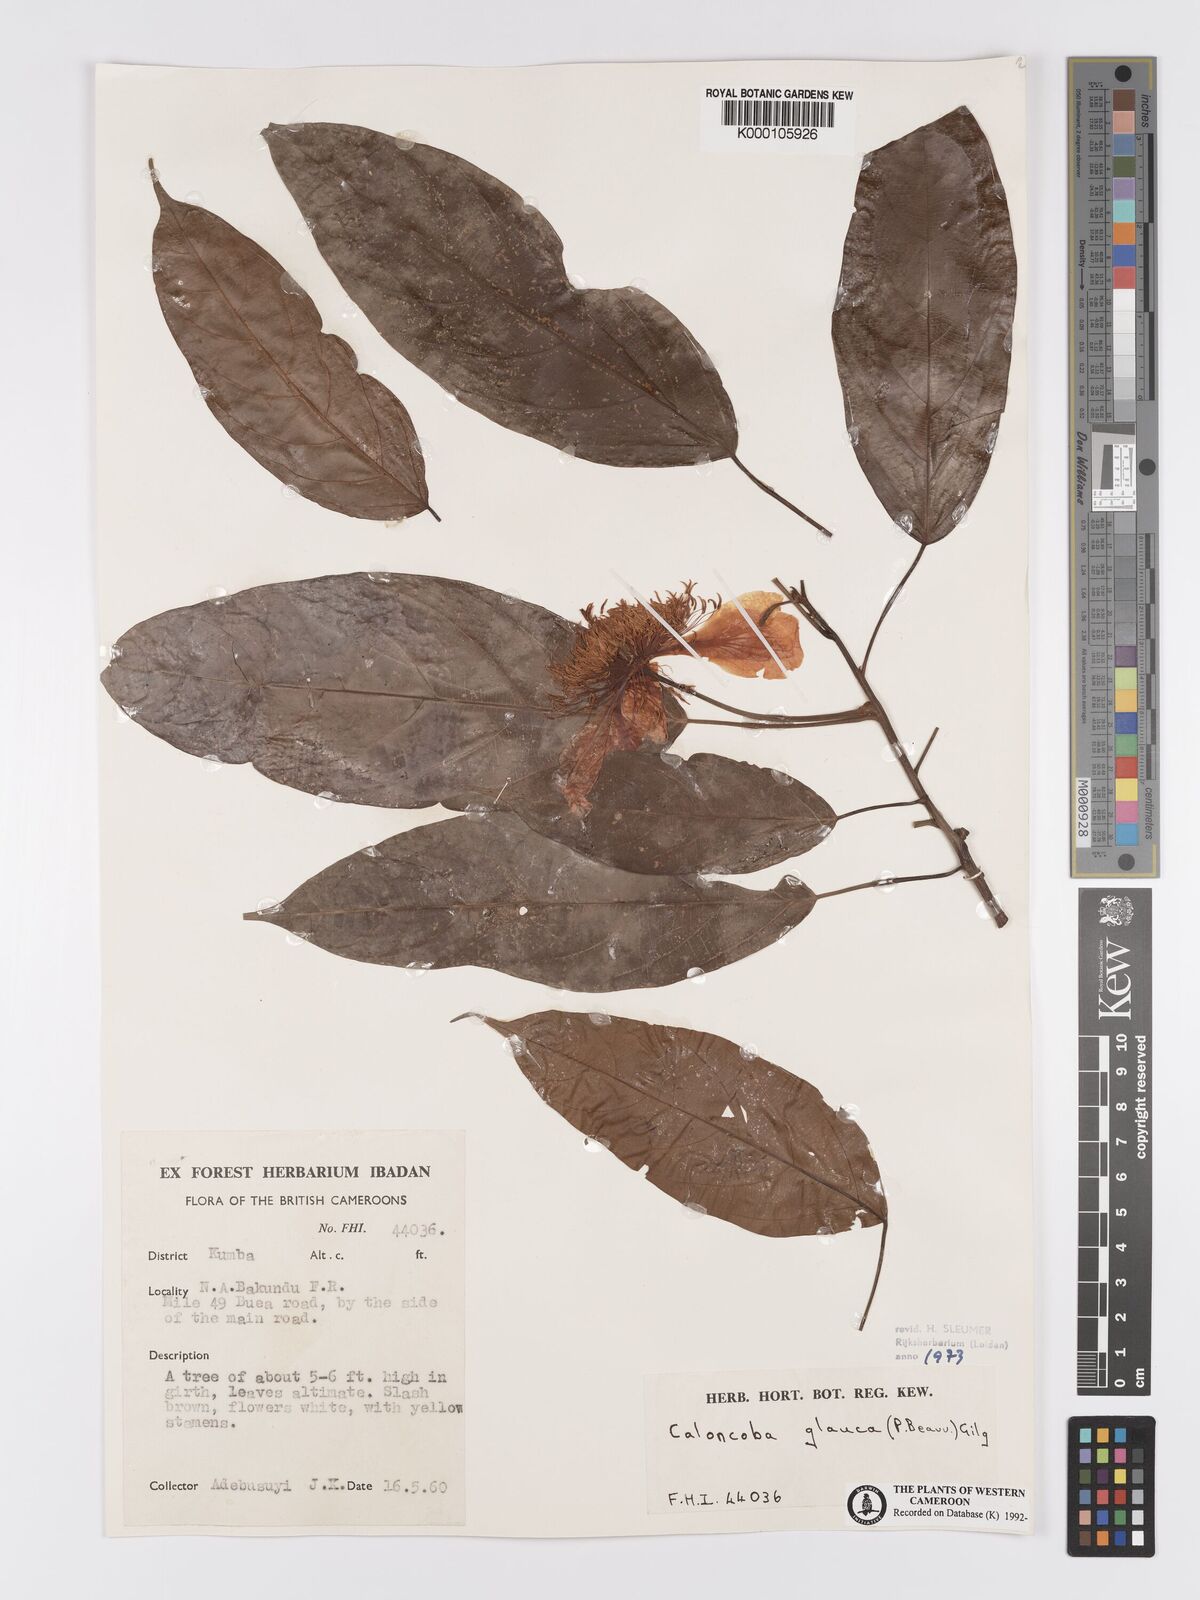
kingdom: Plantae
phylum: Tracheophyta
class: Magnoliopsida
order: Malpighiales
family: Achariaceae
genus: Caloncoba
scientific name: Caloncoba glauca
